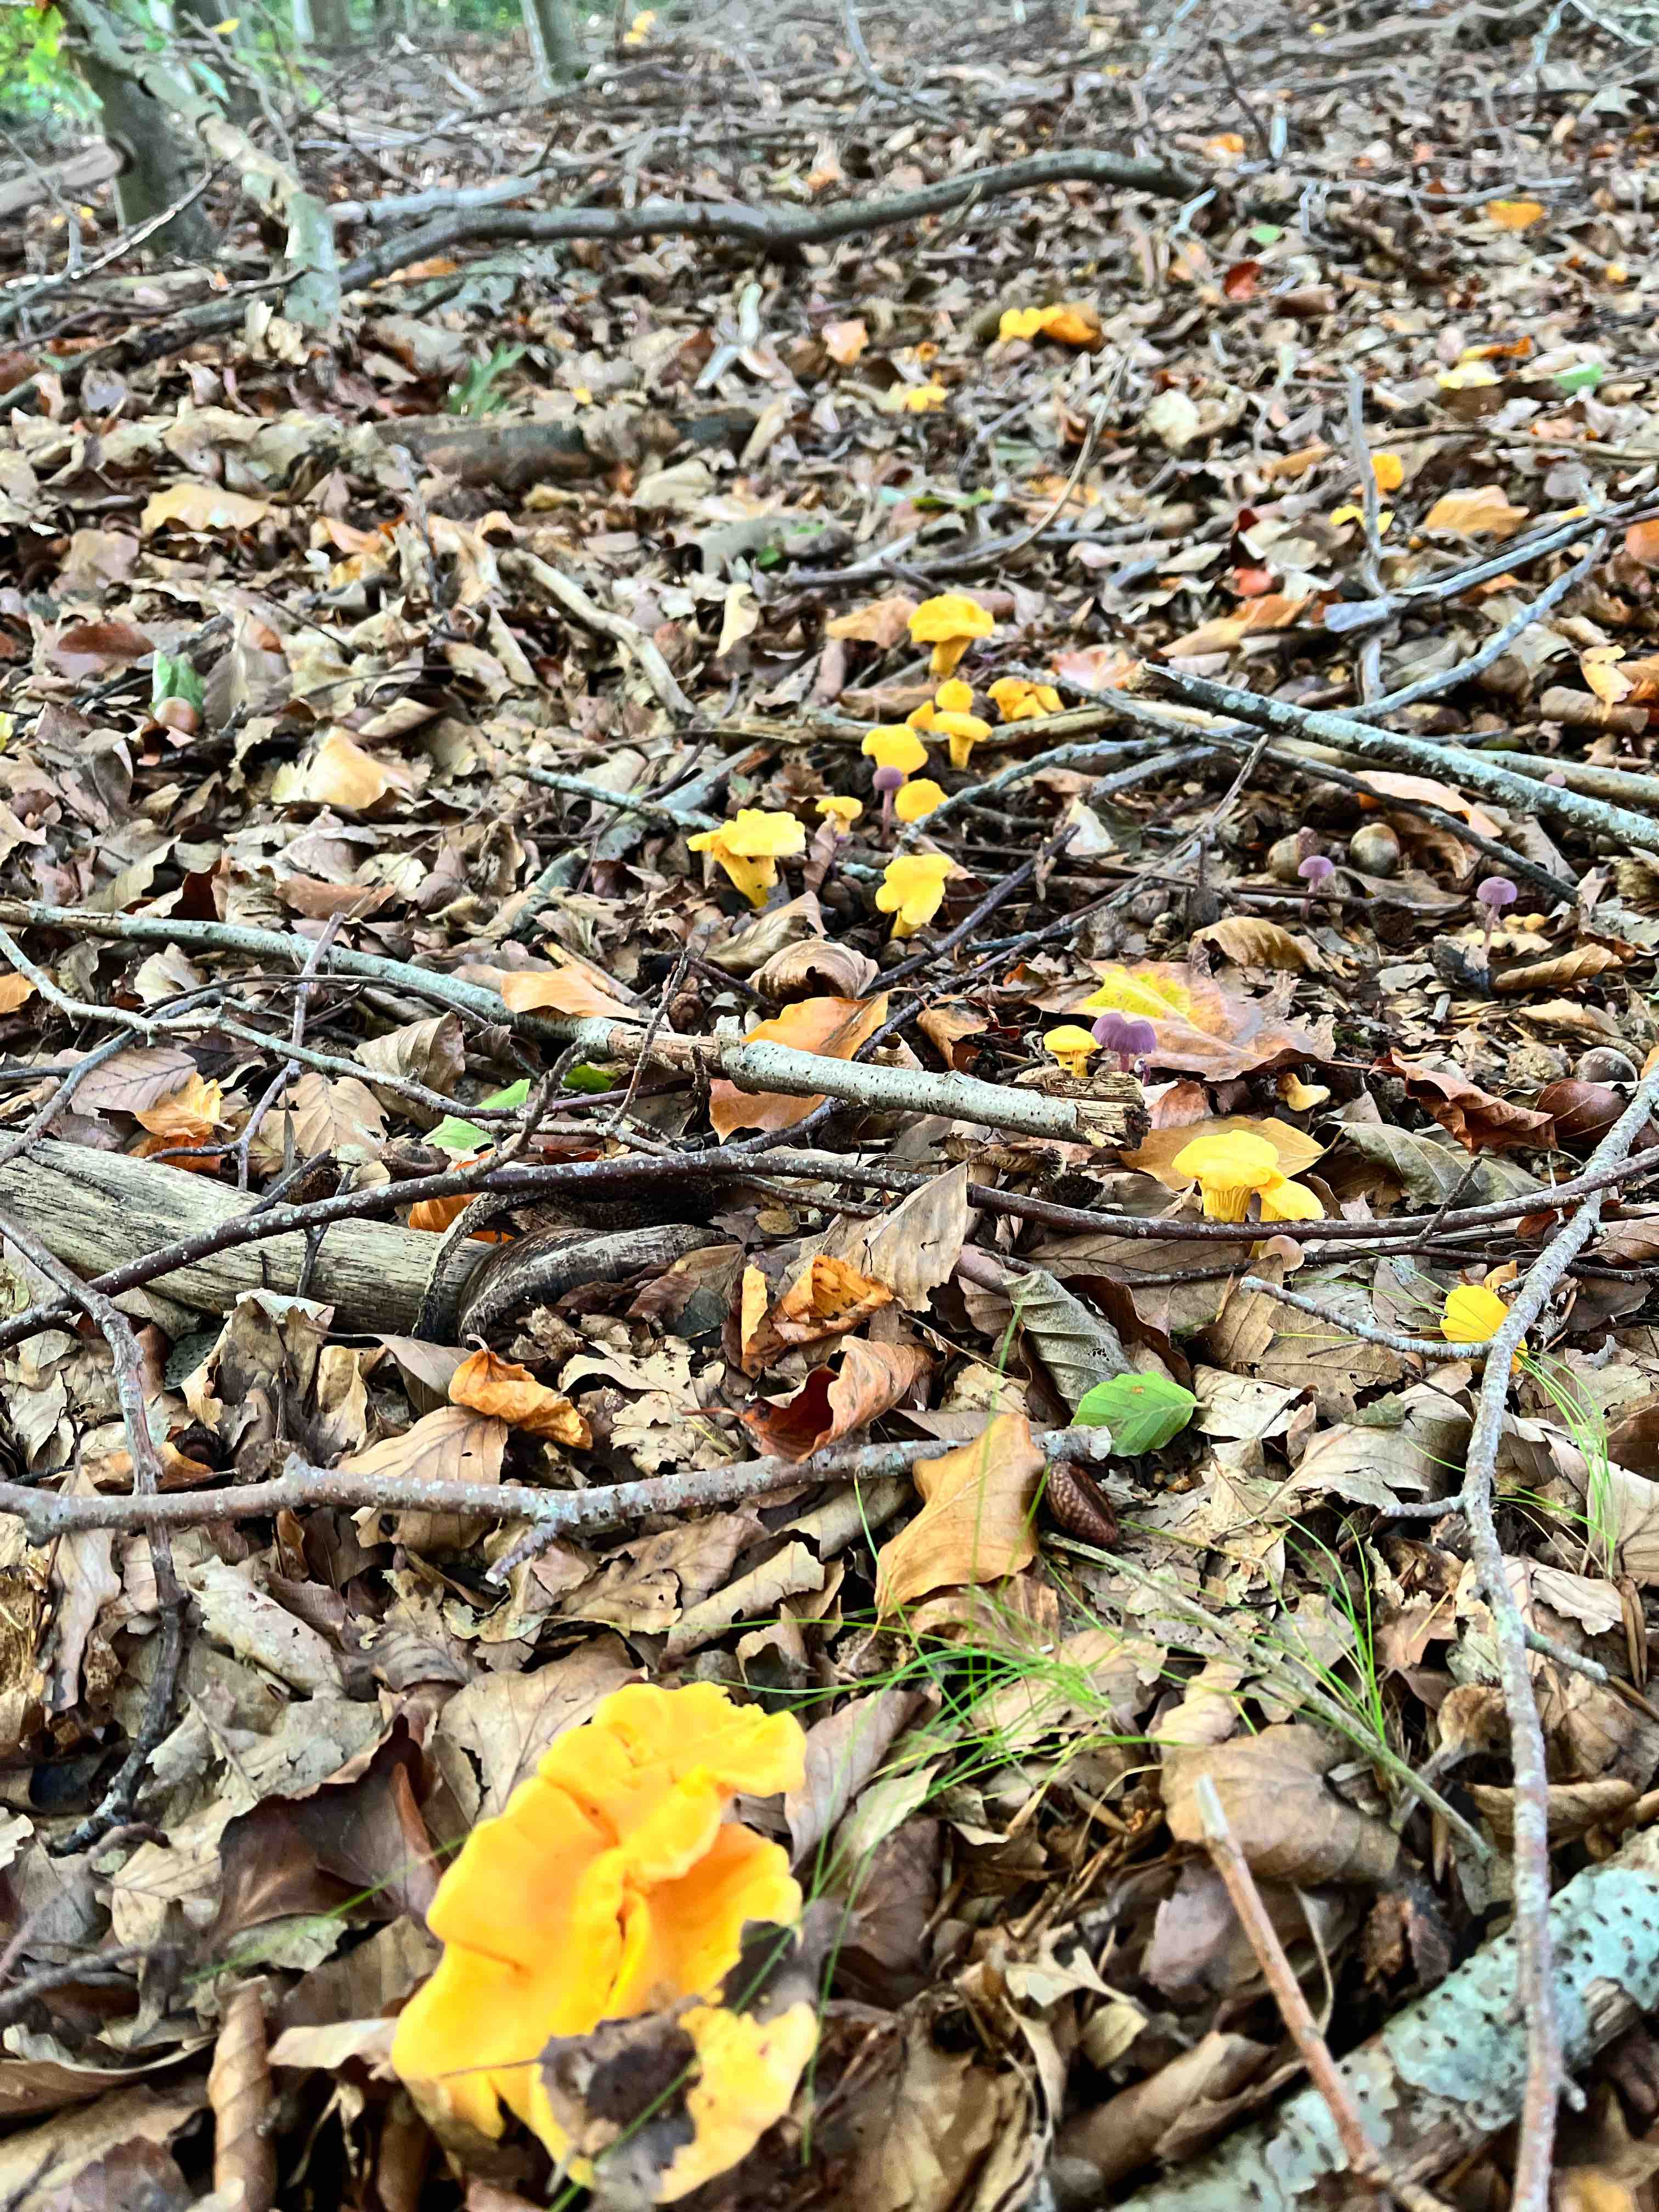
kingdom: Fungi
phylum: Basidiomycota
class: Agaricomycetes
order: Cantharellales
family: Hydnaceae
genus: Cantharellus
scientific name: Cantharellus cibarius
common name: almindelig kantarel
